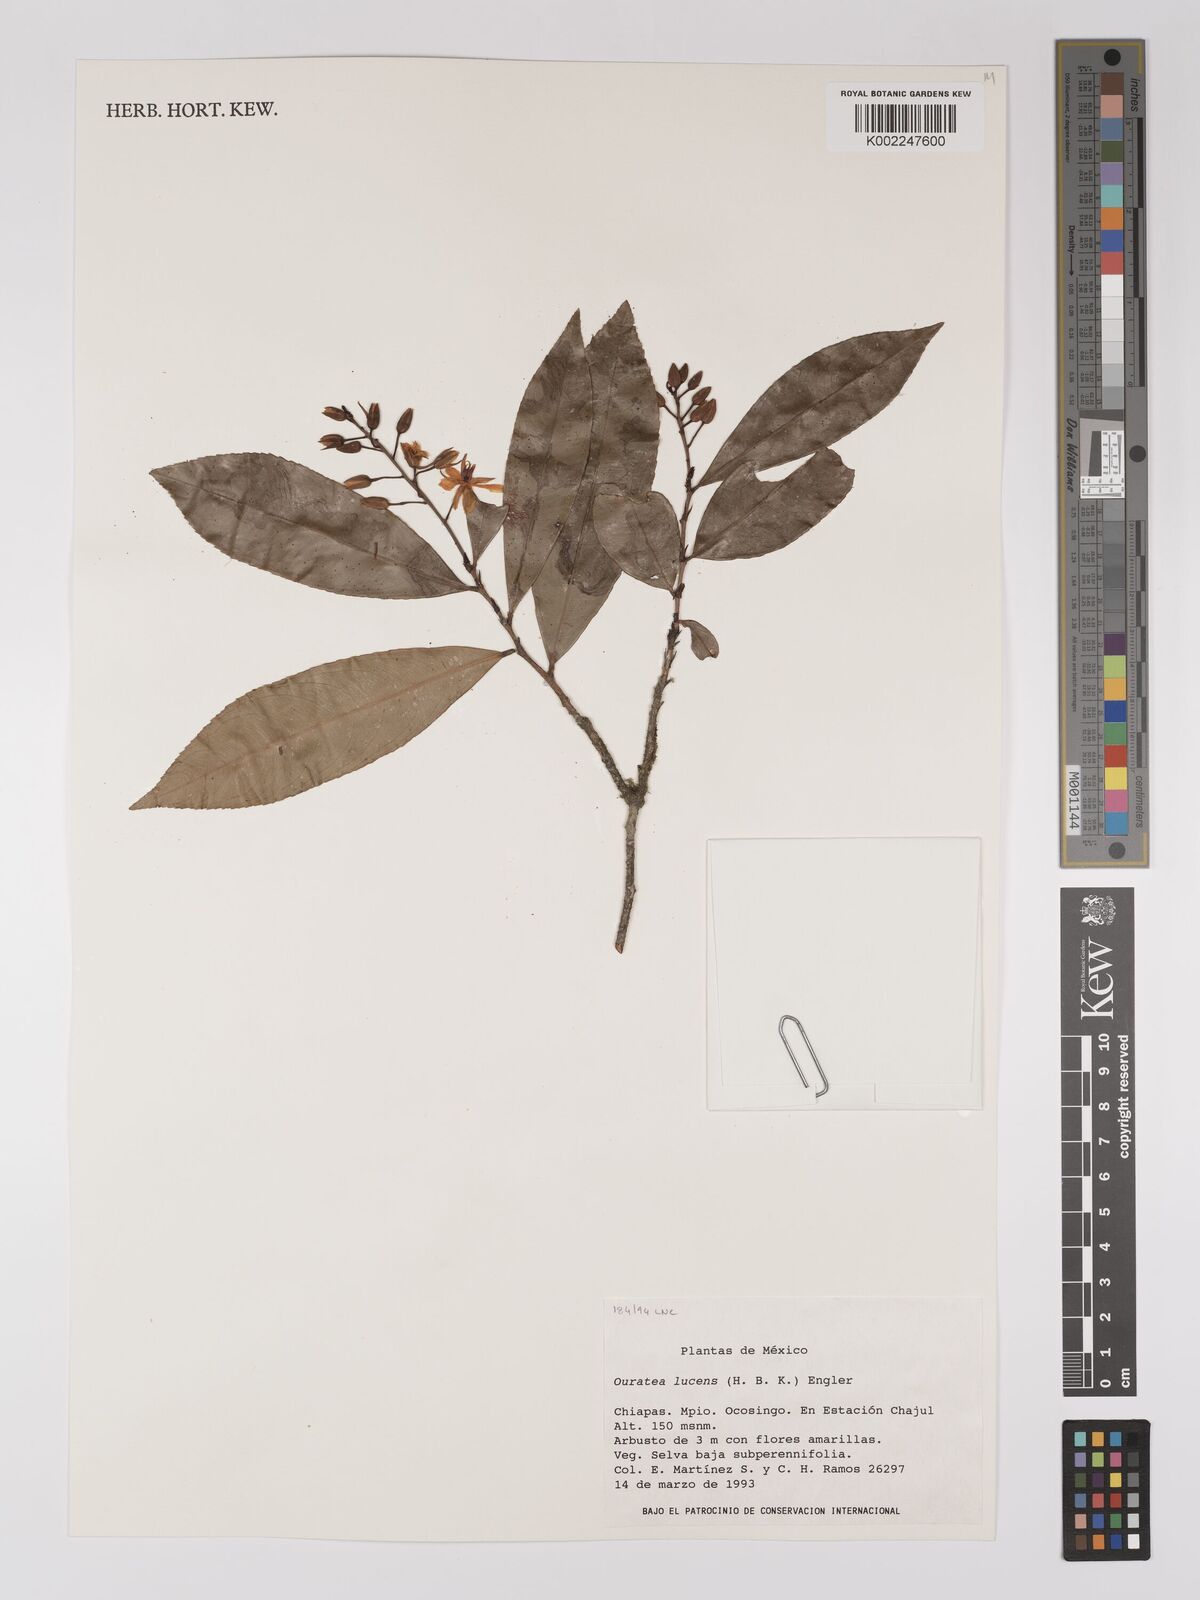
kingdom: Plantae
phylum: Tracheophyta
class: Magnoliopsida
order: Malpighiales
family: Ochnaceae
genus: Ouratea
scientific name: Ouratea lucens
